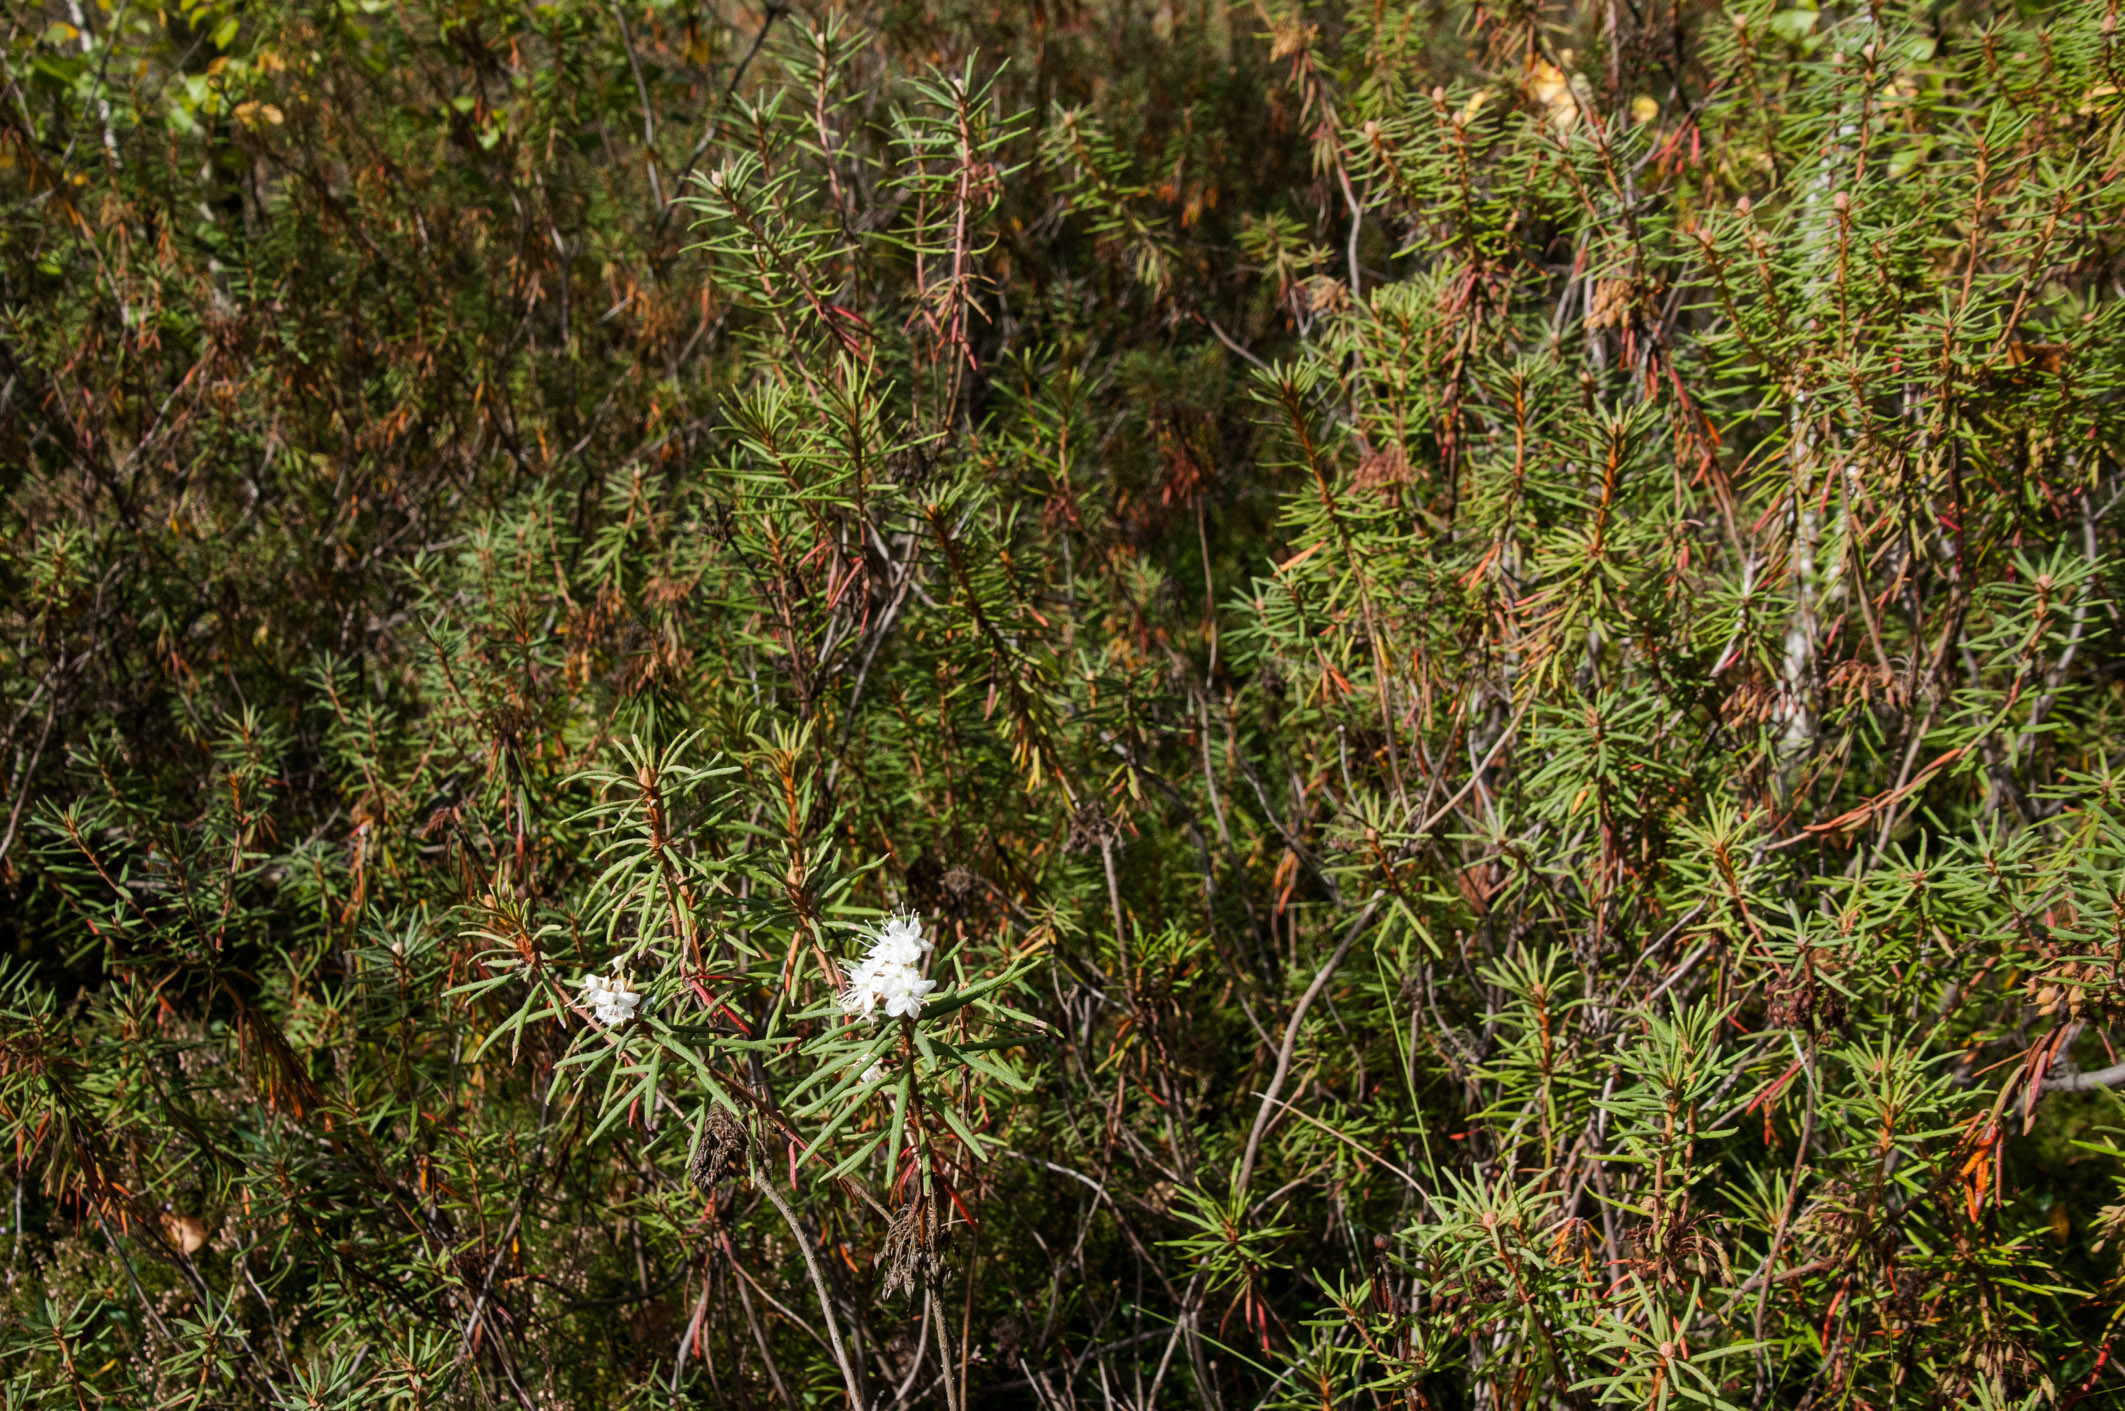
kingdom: Plantae
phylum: Tracheophyta
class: Magnoliopsida
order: Ericales
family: Ericaceae
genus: Rhododendron
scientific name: Rhododendron tomentosum
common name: Marsh labrador tea
